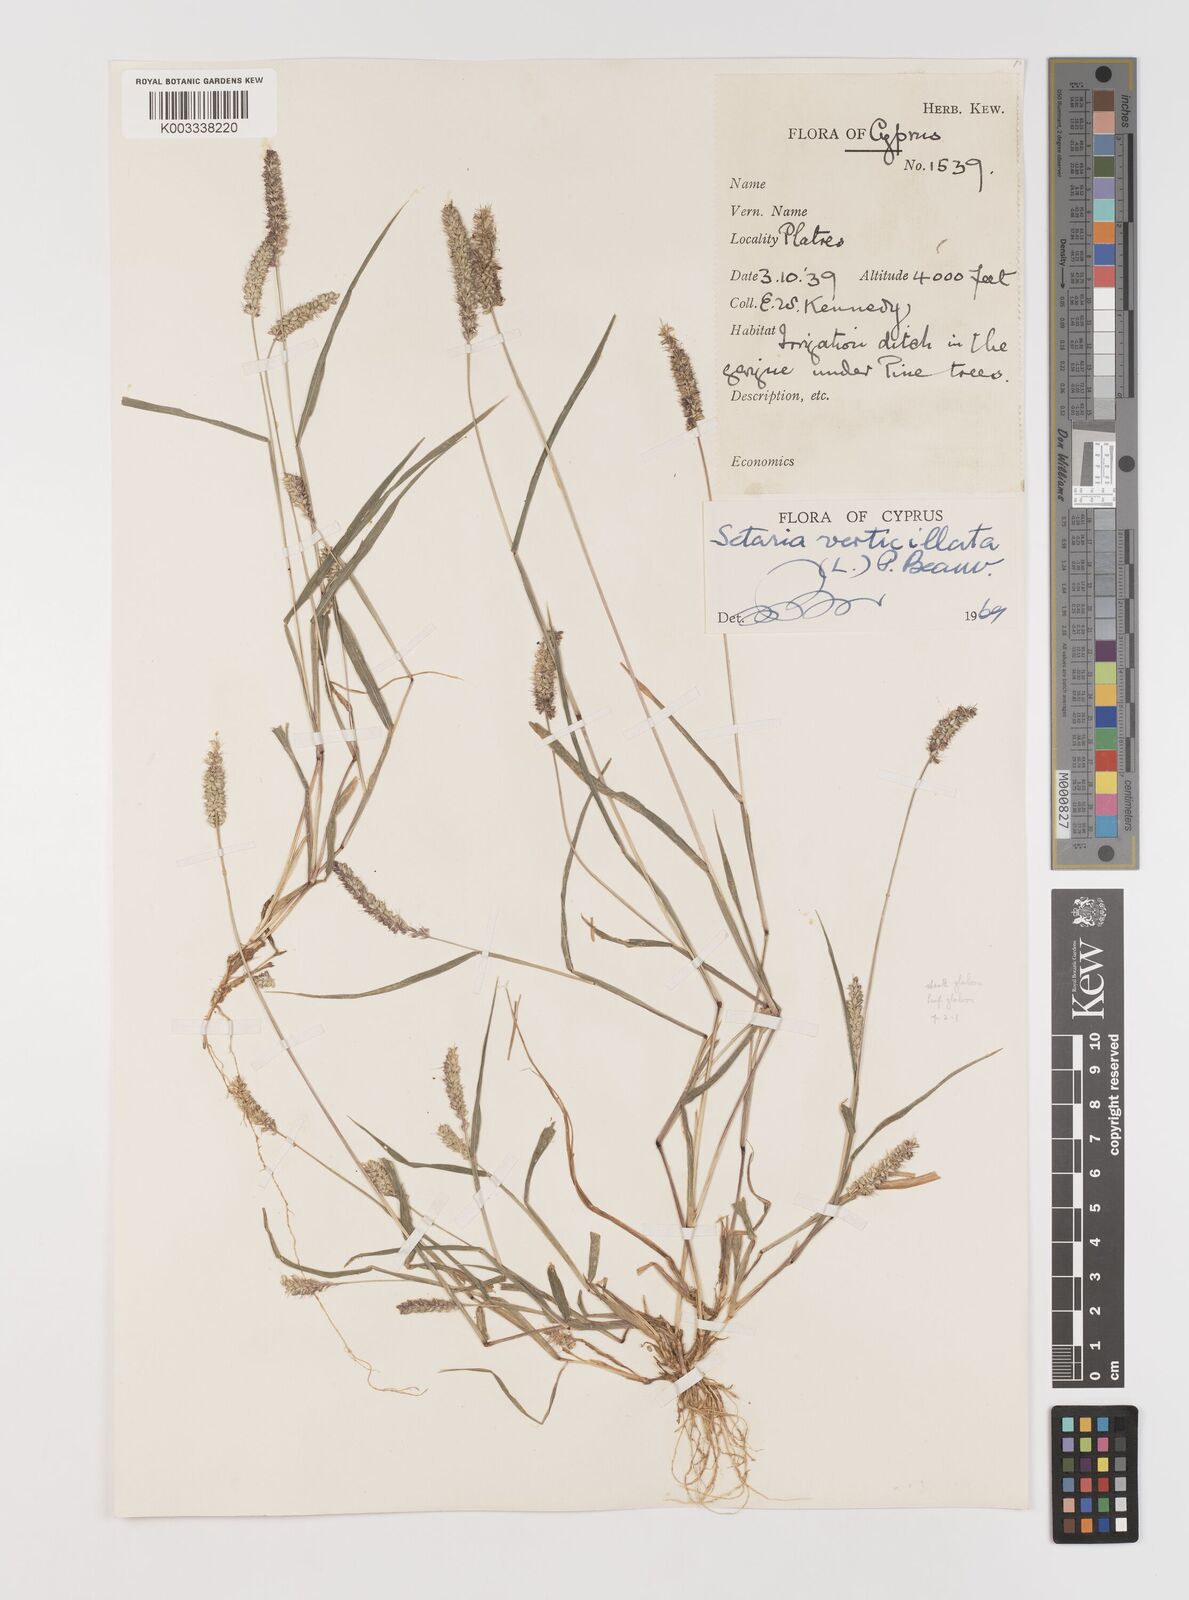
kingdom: Plantae
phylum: Tracheophyta
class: Liliopsida
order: Poales
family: Poaceae
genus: Setaria
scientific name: Setaria verticillata
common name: Hooked bristlegrass
